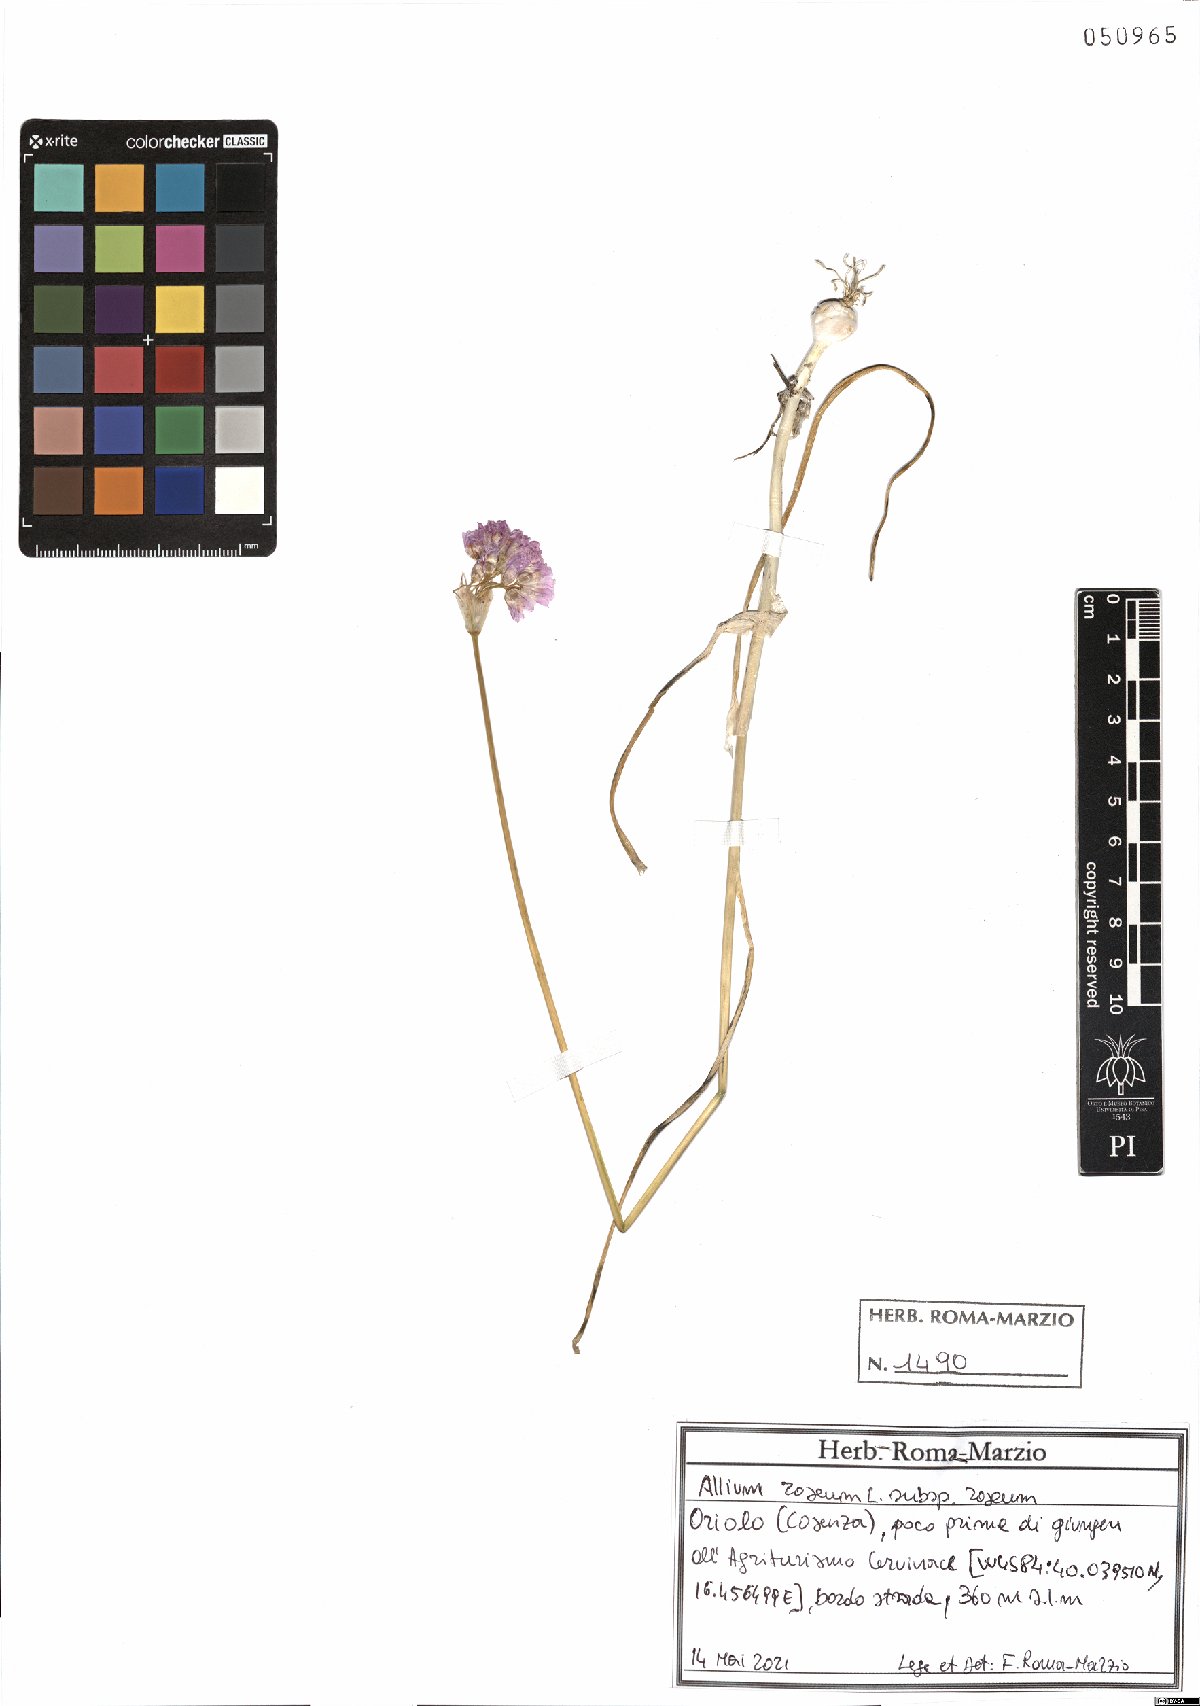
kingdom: Plantae
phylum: Tracheophyta
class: Liliopsida
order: Asparagales
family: Amaryllidaceae
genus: Allium
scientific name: Allium roseum
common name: Rosy garlic
